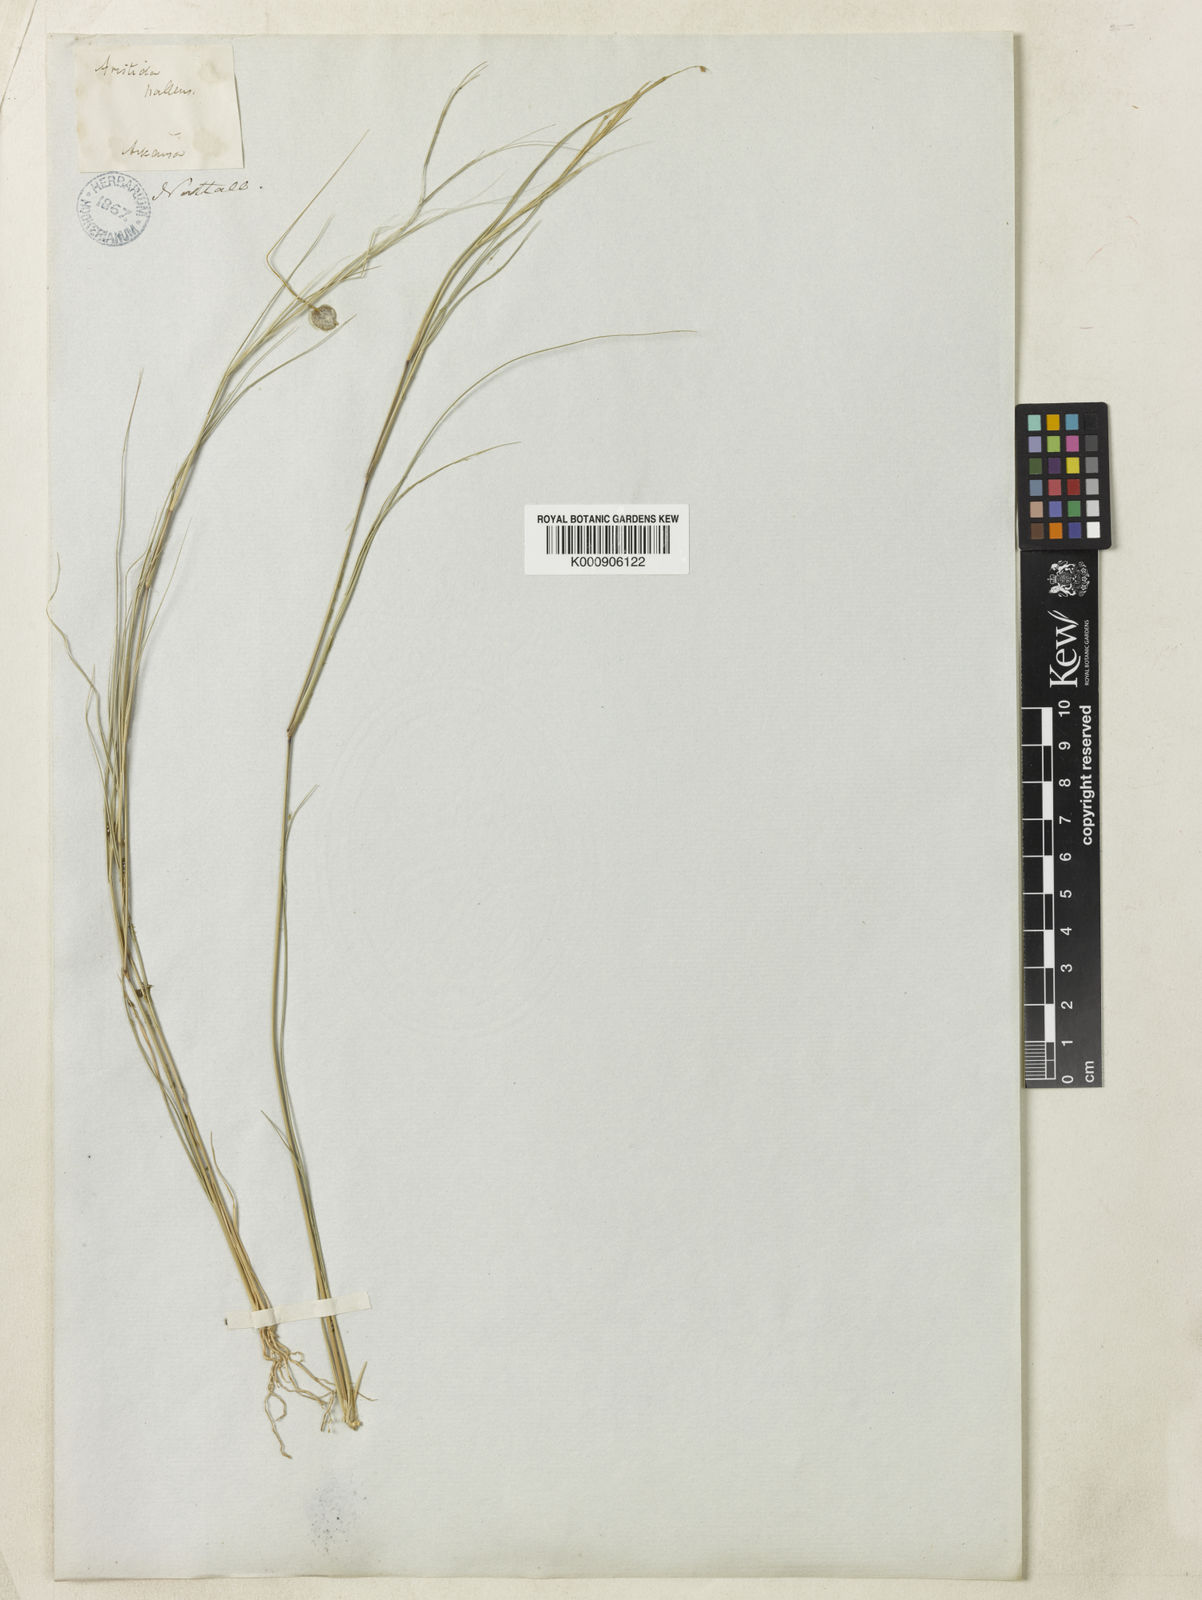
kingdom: Plantae
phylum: Tracheophyta
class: Liliopsida
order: Poales
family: Poaceae
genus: Aristida
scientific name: Aristida oligantha
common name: Few-flowered aristida
